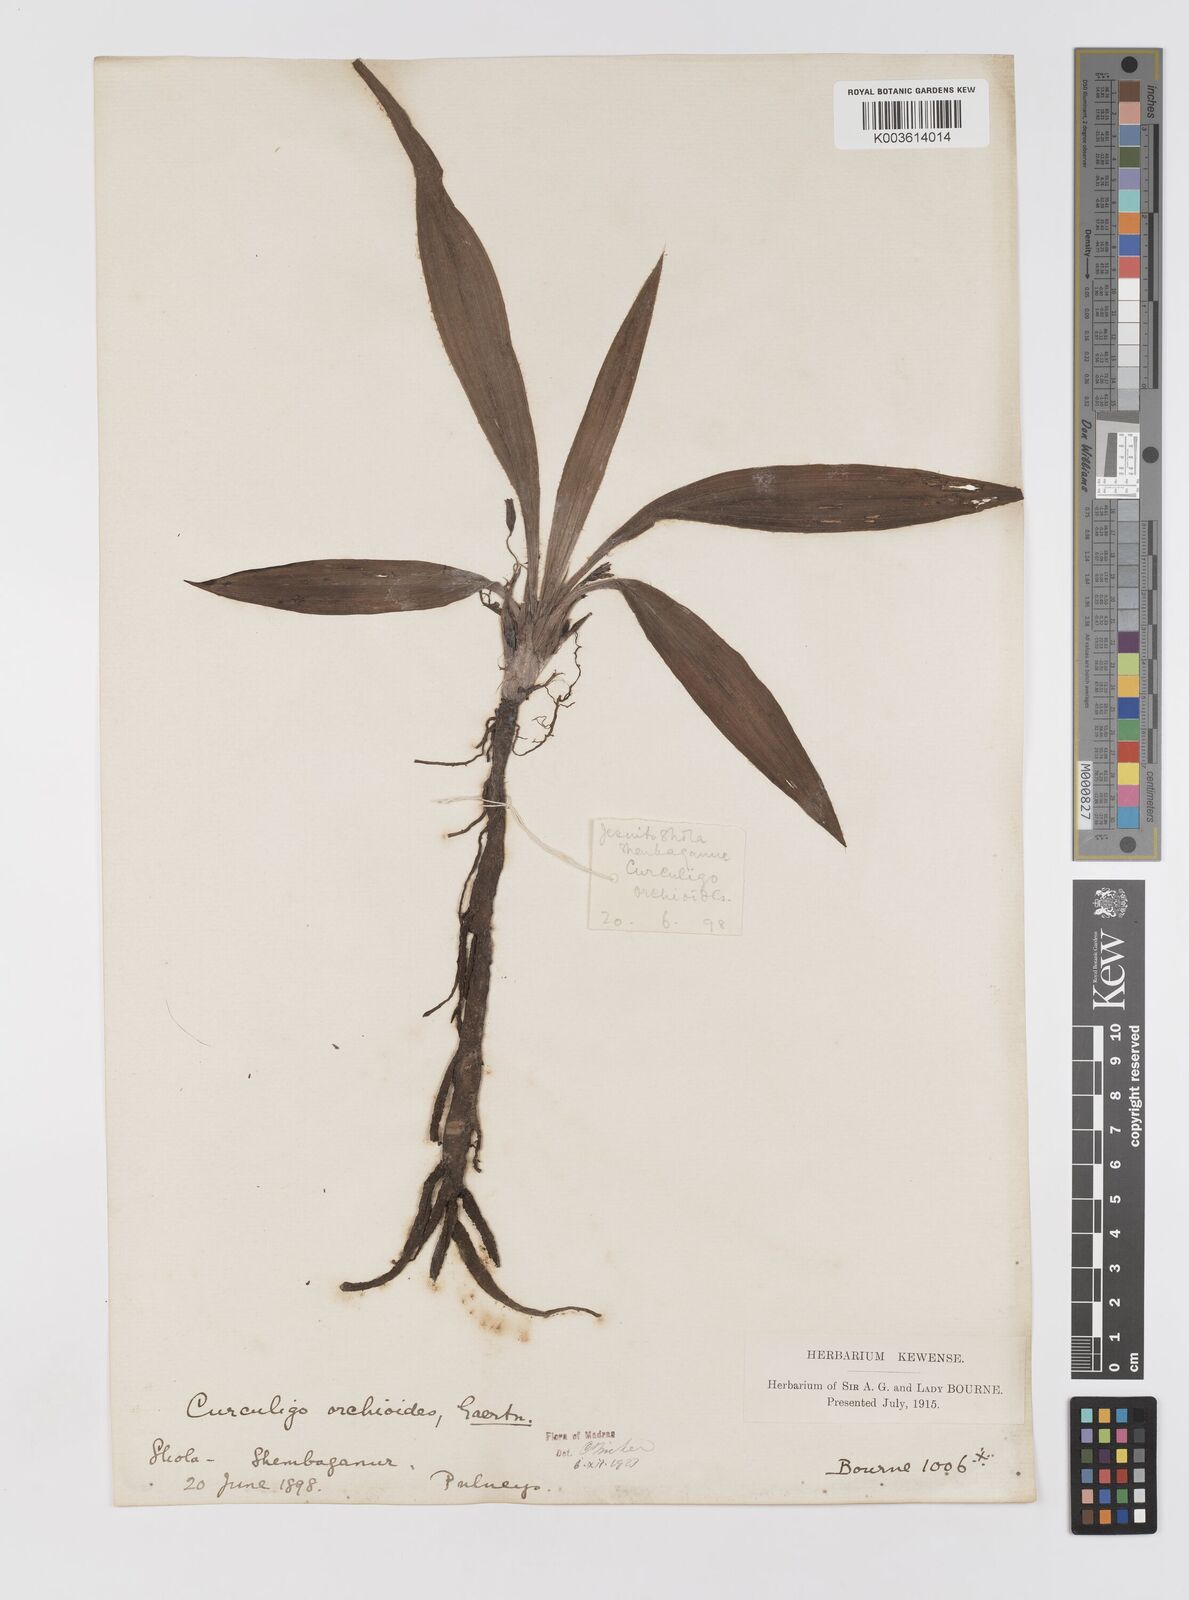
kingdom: Plantae
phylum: Tracheophyta
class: Liliopsida
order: Asparagales
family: Hypoxidaceae
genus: Curculigo
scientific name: Curculigo orchioides
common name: Golden eye-grass
